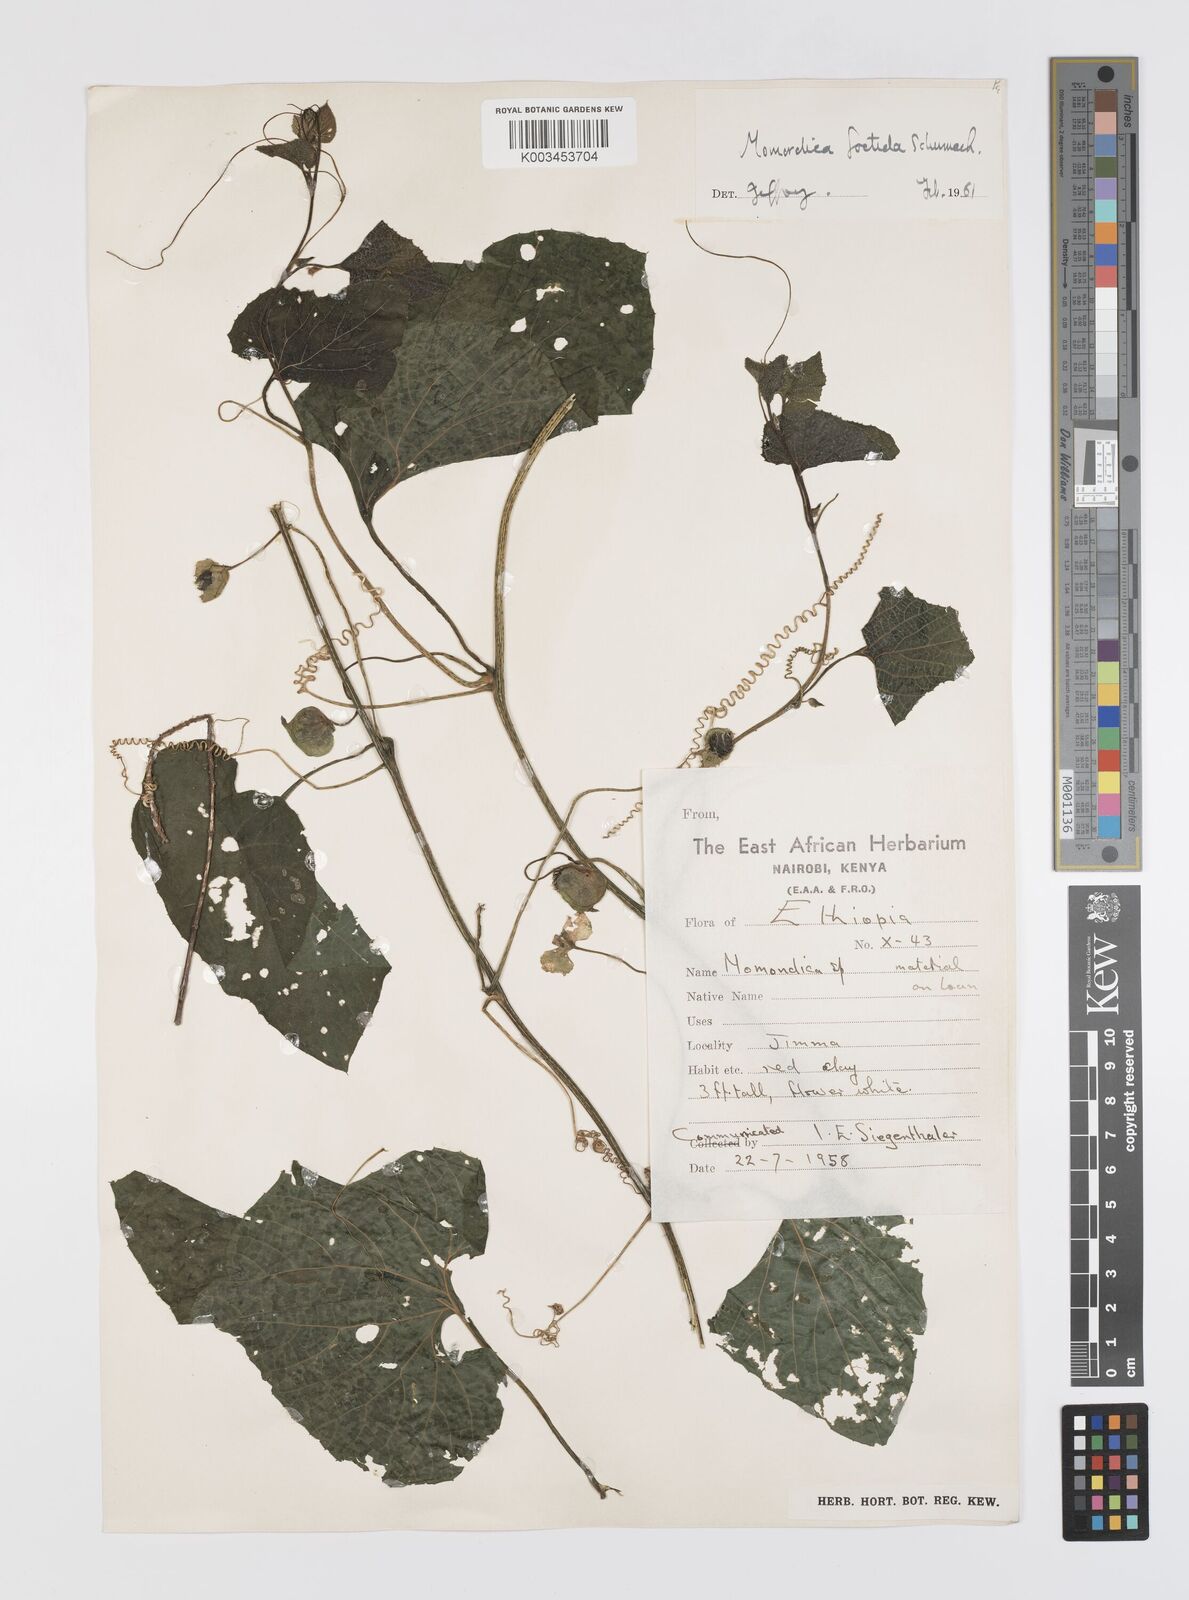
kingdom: Plantae
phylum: Tracheophyta
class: Magnoliopsida
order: Cucurbitales
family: Cucurbitaceae
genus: Momordica
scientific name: Momordica foetida
